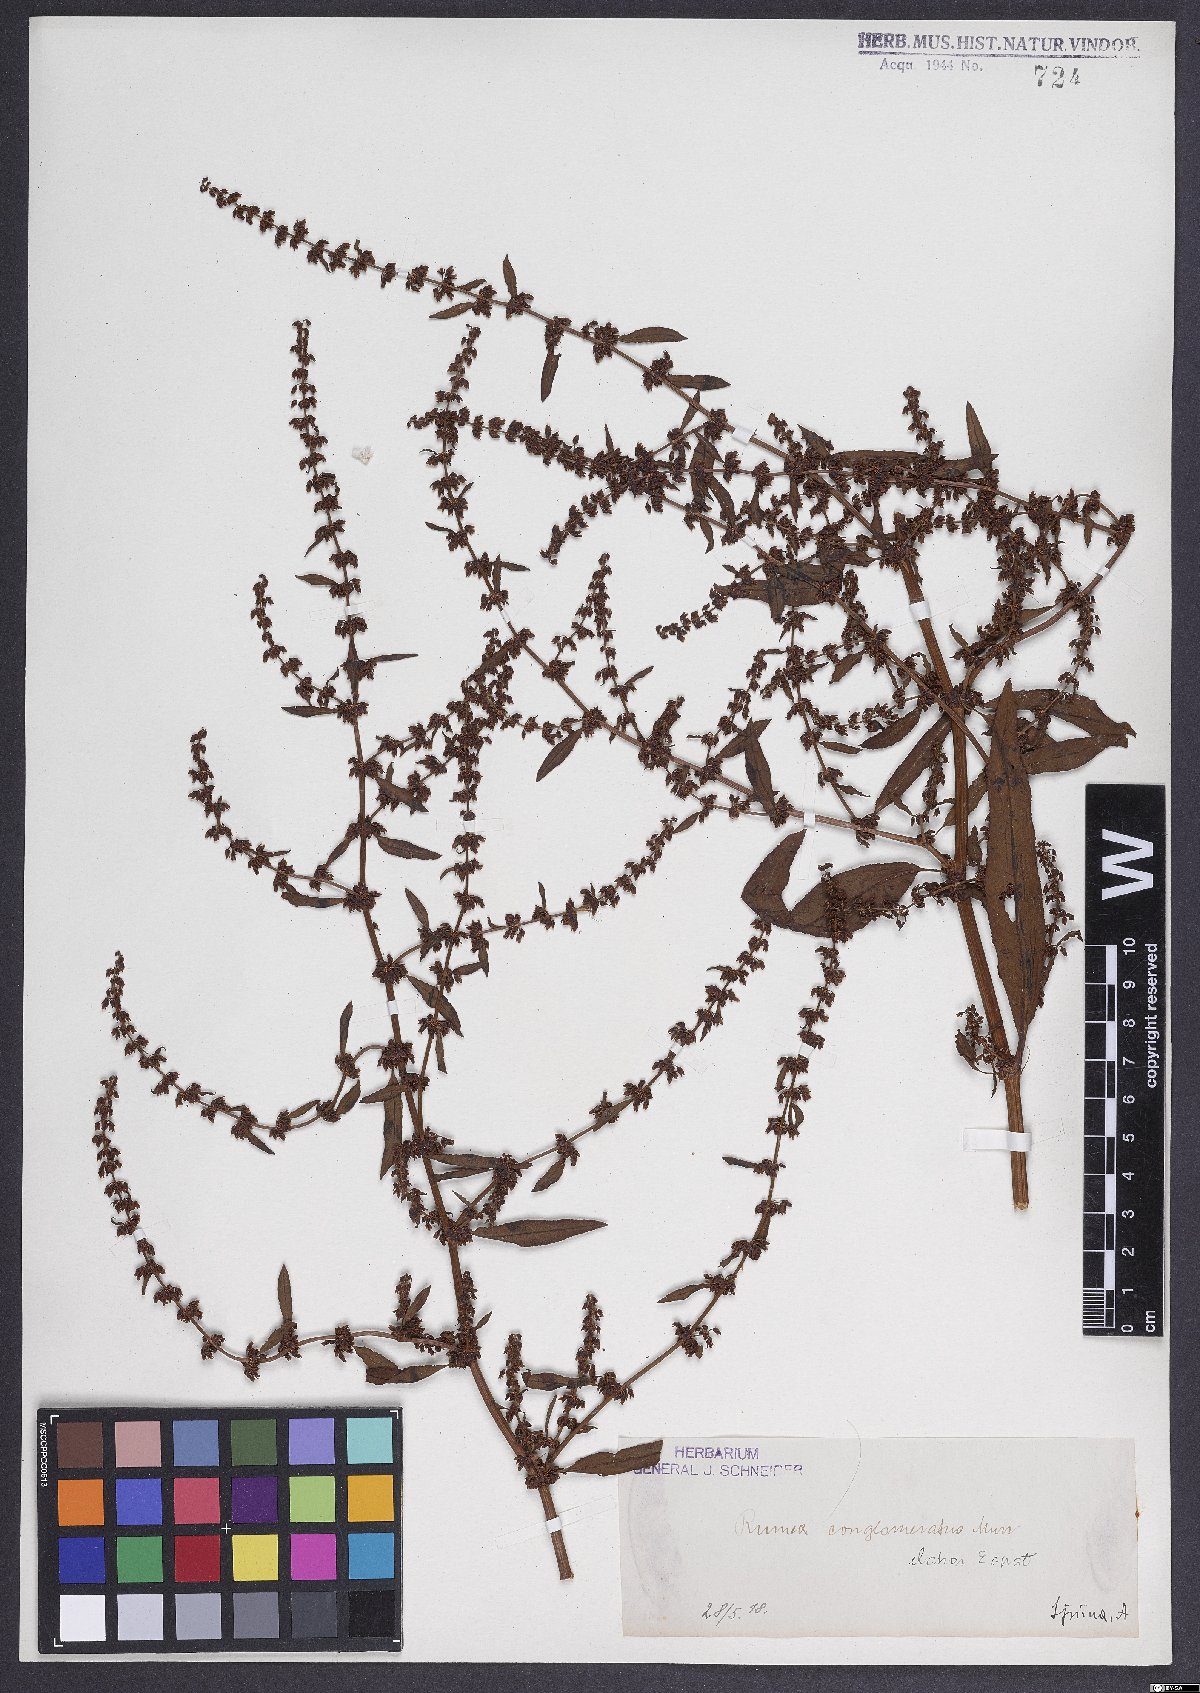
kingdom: Plantae
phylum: Tracheophyta
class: Magnoliopsida
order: Caryophyllales
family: Polygonaceae
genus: Rumex
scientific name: Rumex conglomeratus
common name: Clustered dock
